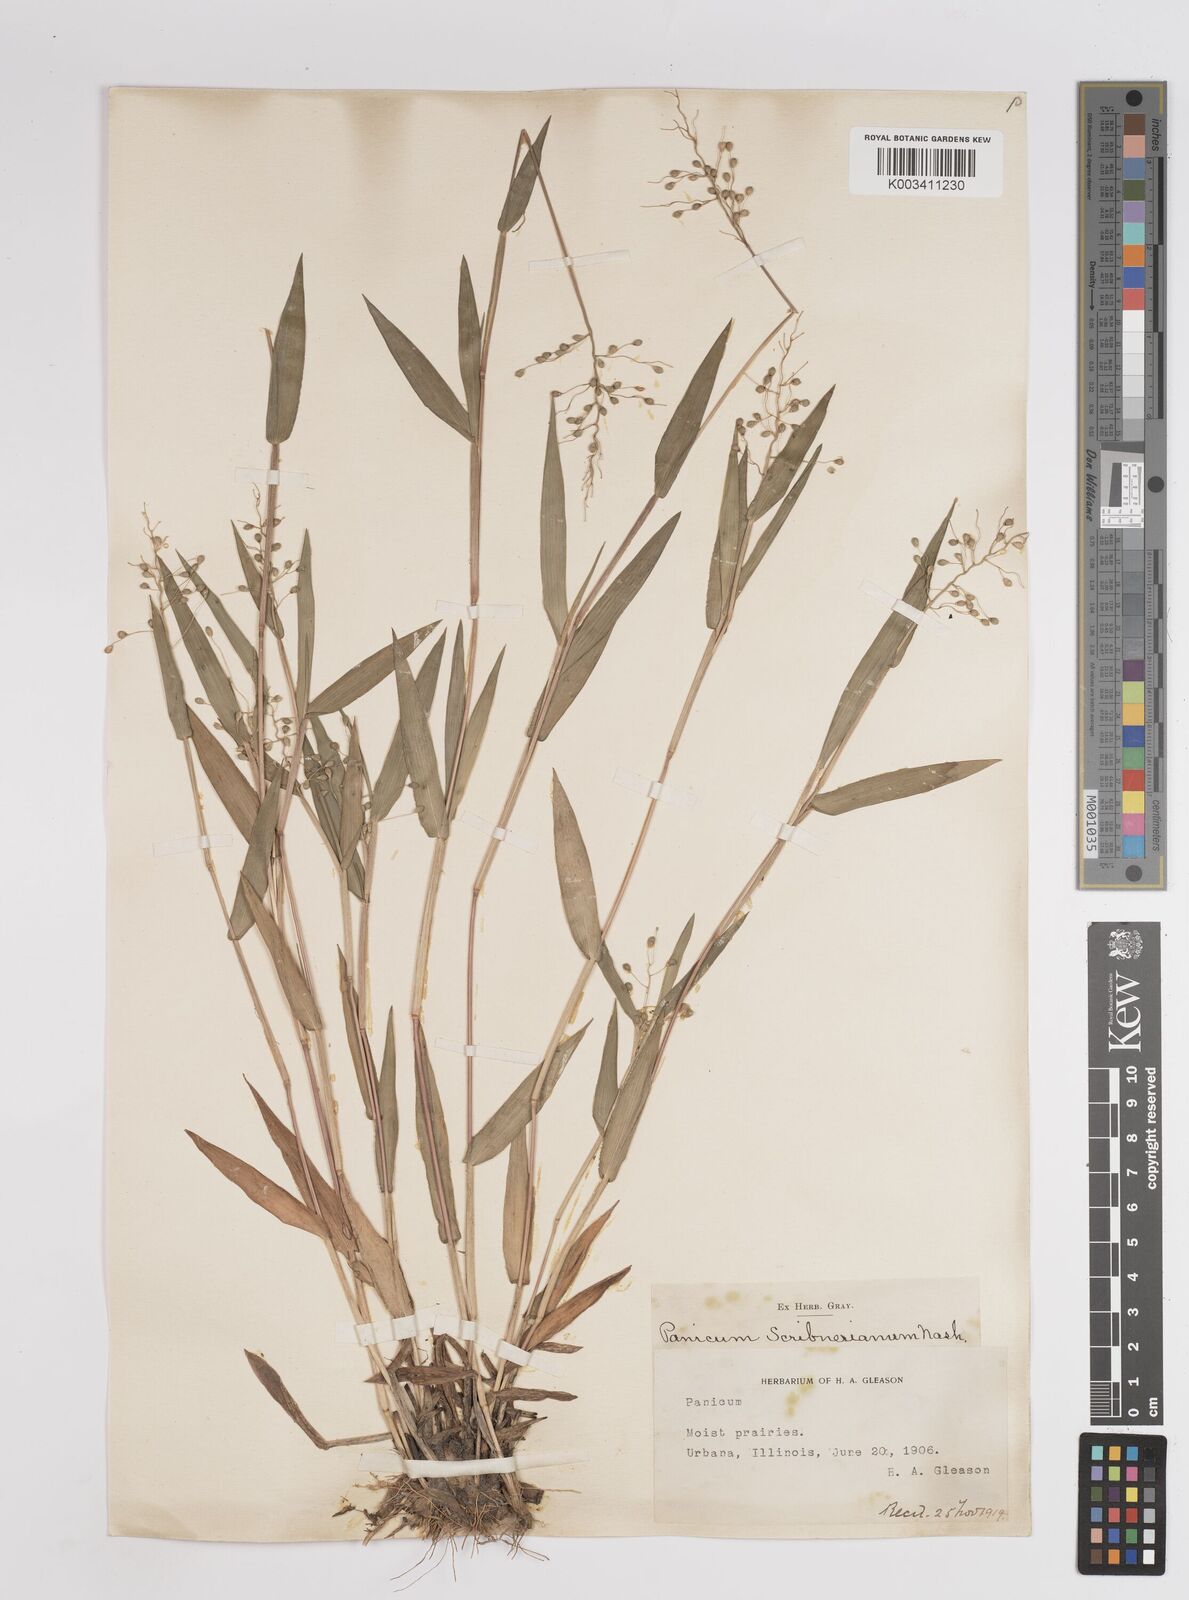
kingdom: Plantae
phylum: Tracheophyta
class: Liliopsida
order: Poales
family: Poaceae
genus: Dichanthelium
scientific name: Dichanthelium scribnerianum
